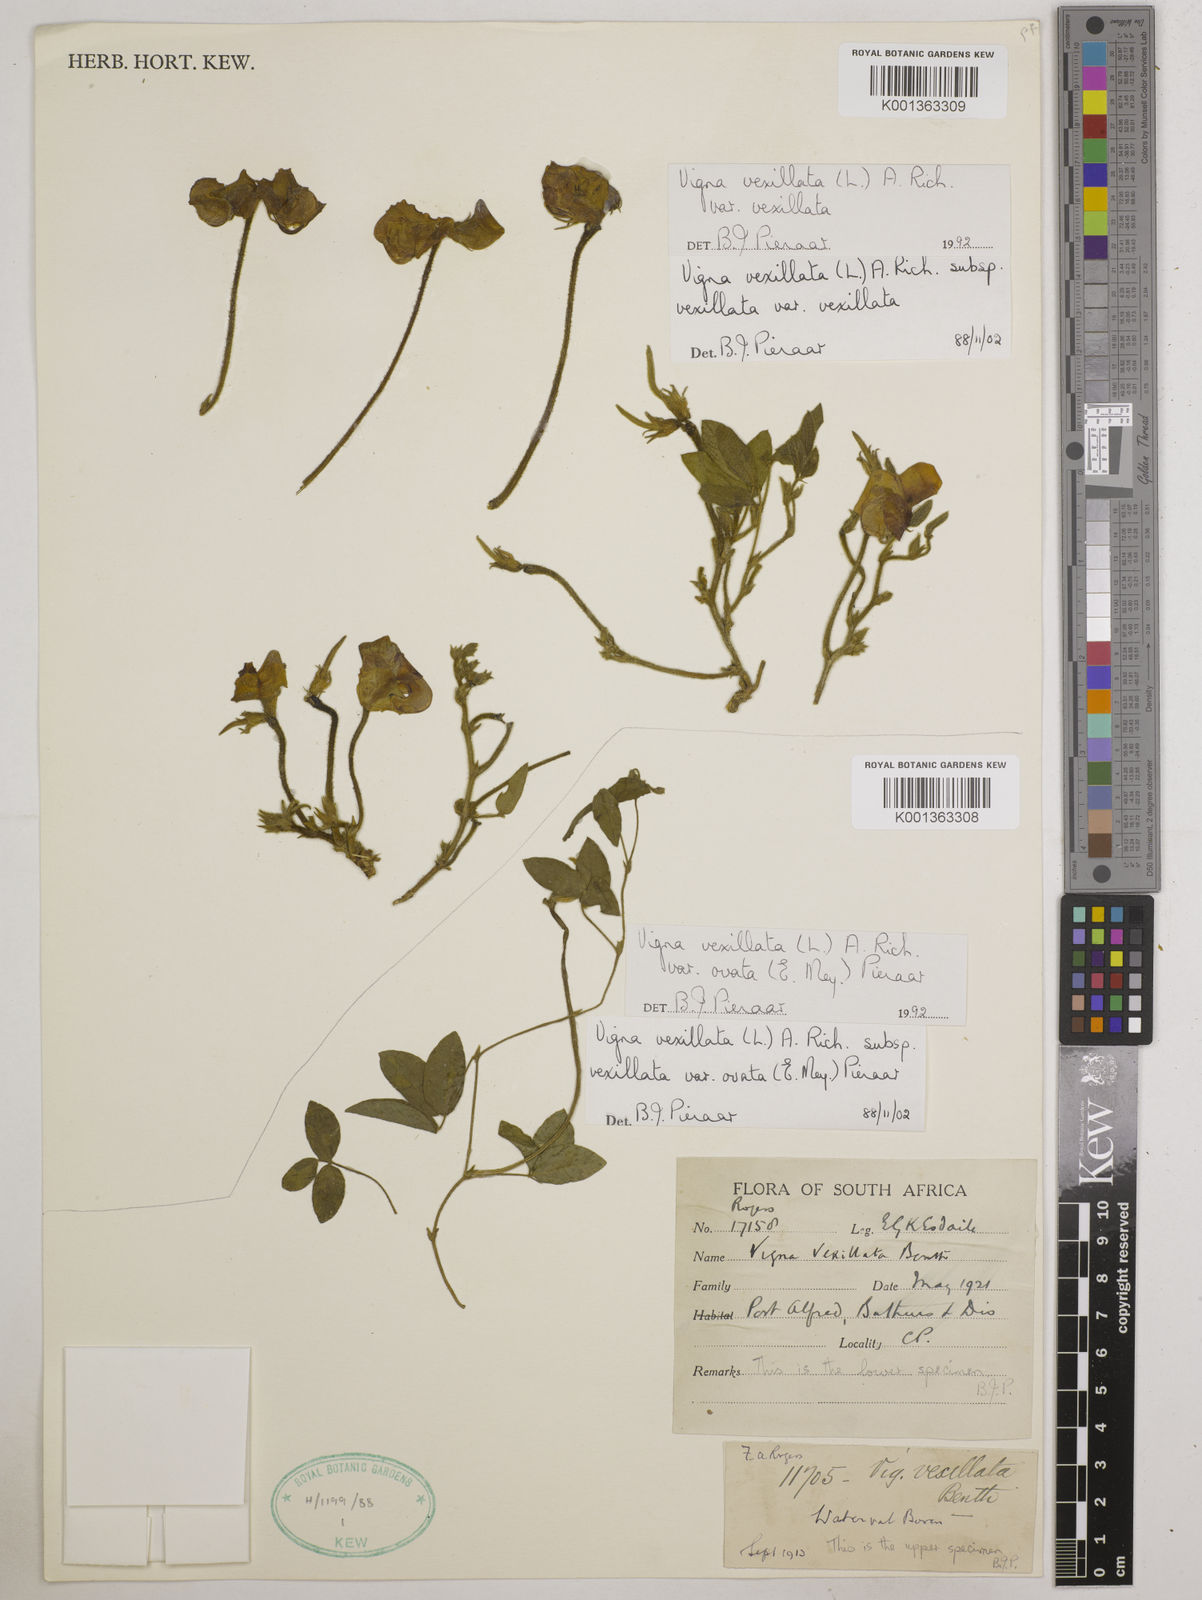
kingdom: Plantae
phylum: Tracheophyta
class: Magnoliopsida
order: Fabales
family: Fabaceae
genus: Vigna
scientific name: Vigna
